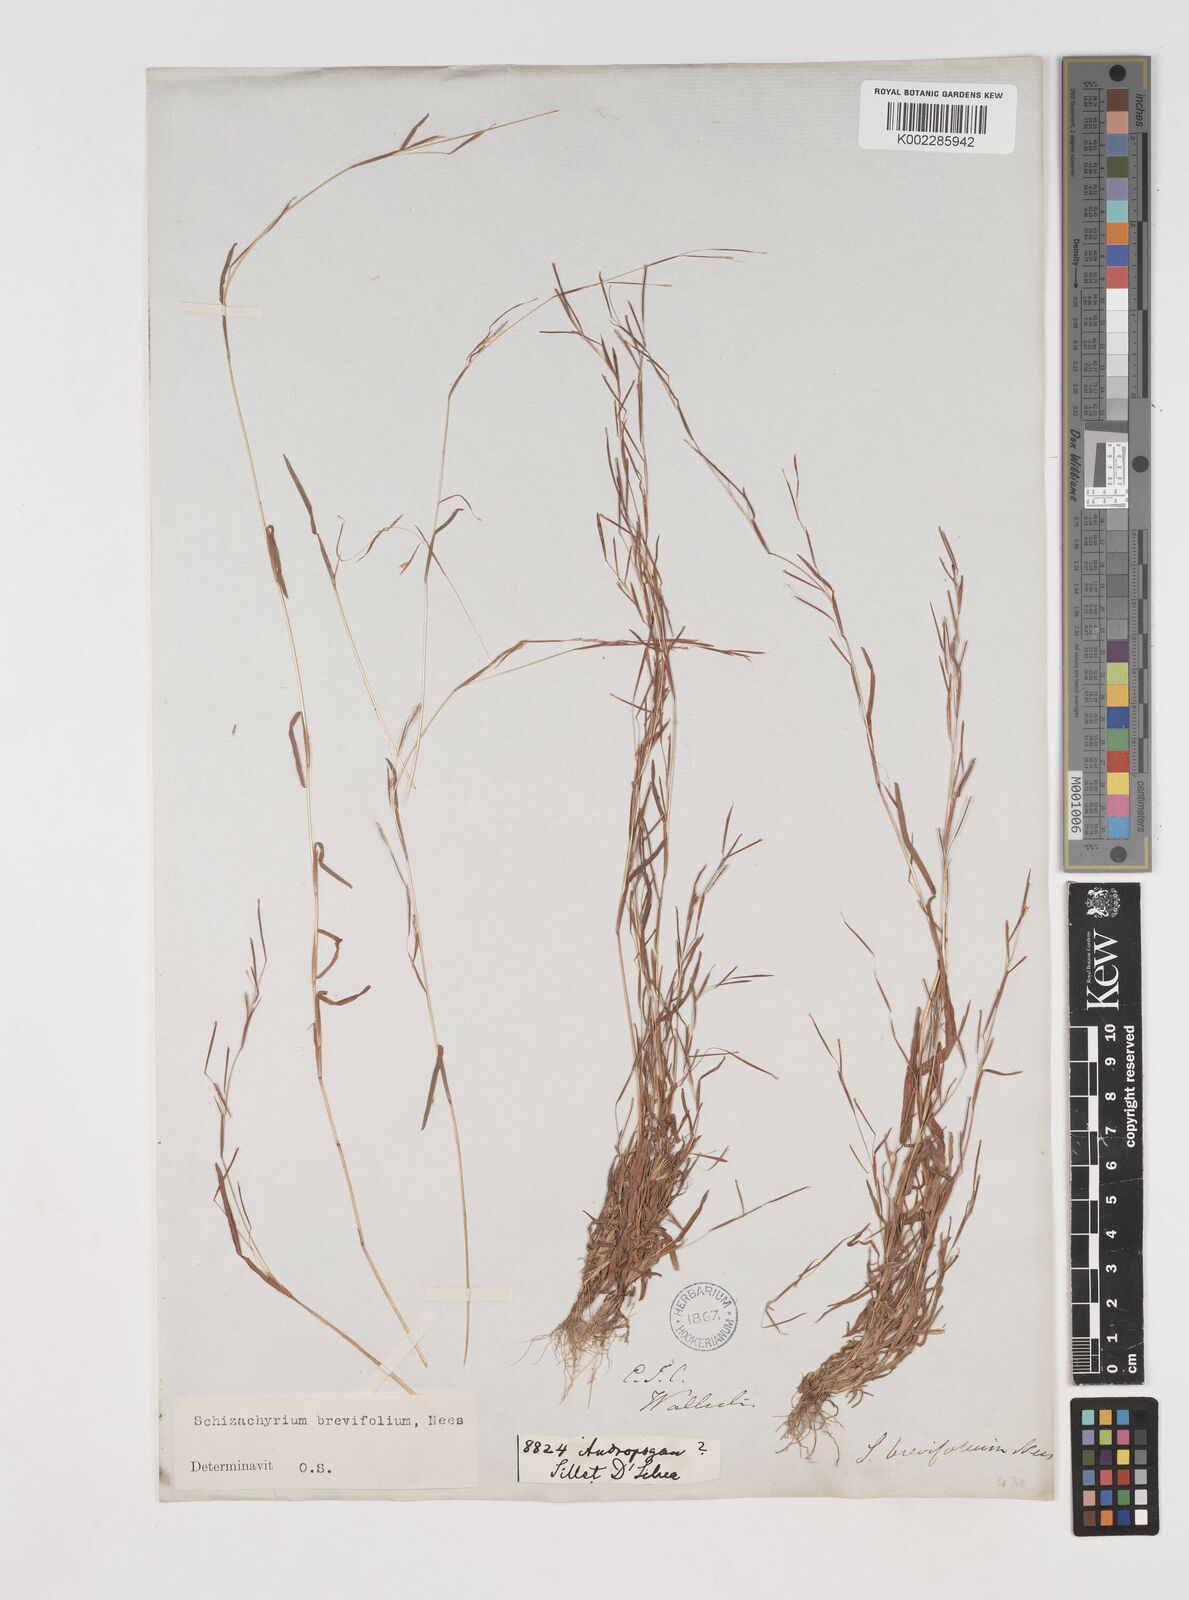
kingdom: Plantae
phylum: Tracheophyta
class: Liliopsida
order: Poales
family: Poaceae
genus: Schizachyrium
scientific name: Schizachyrium brevifolium
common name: Serillo dulce
